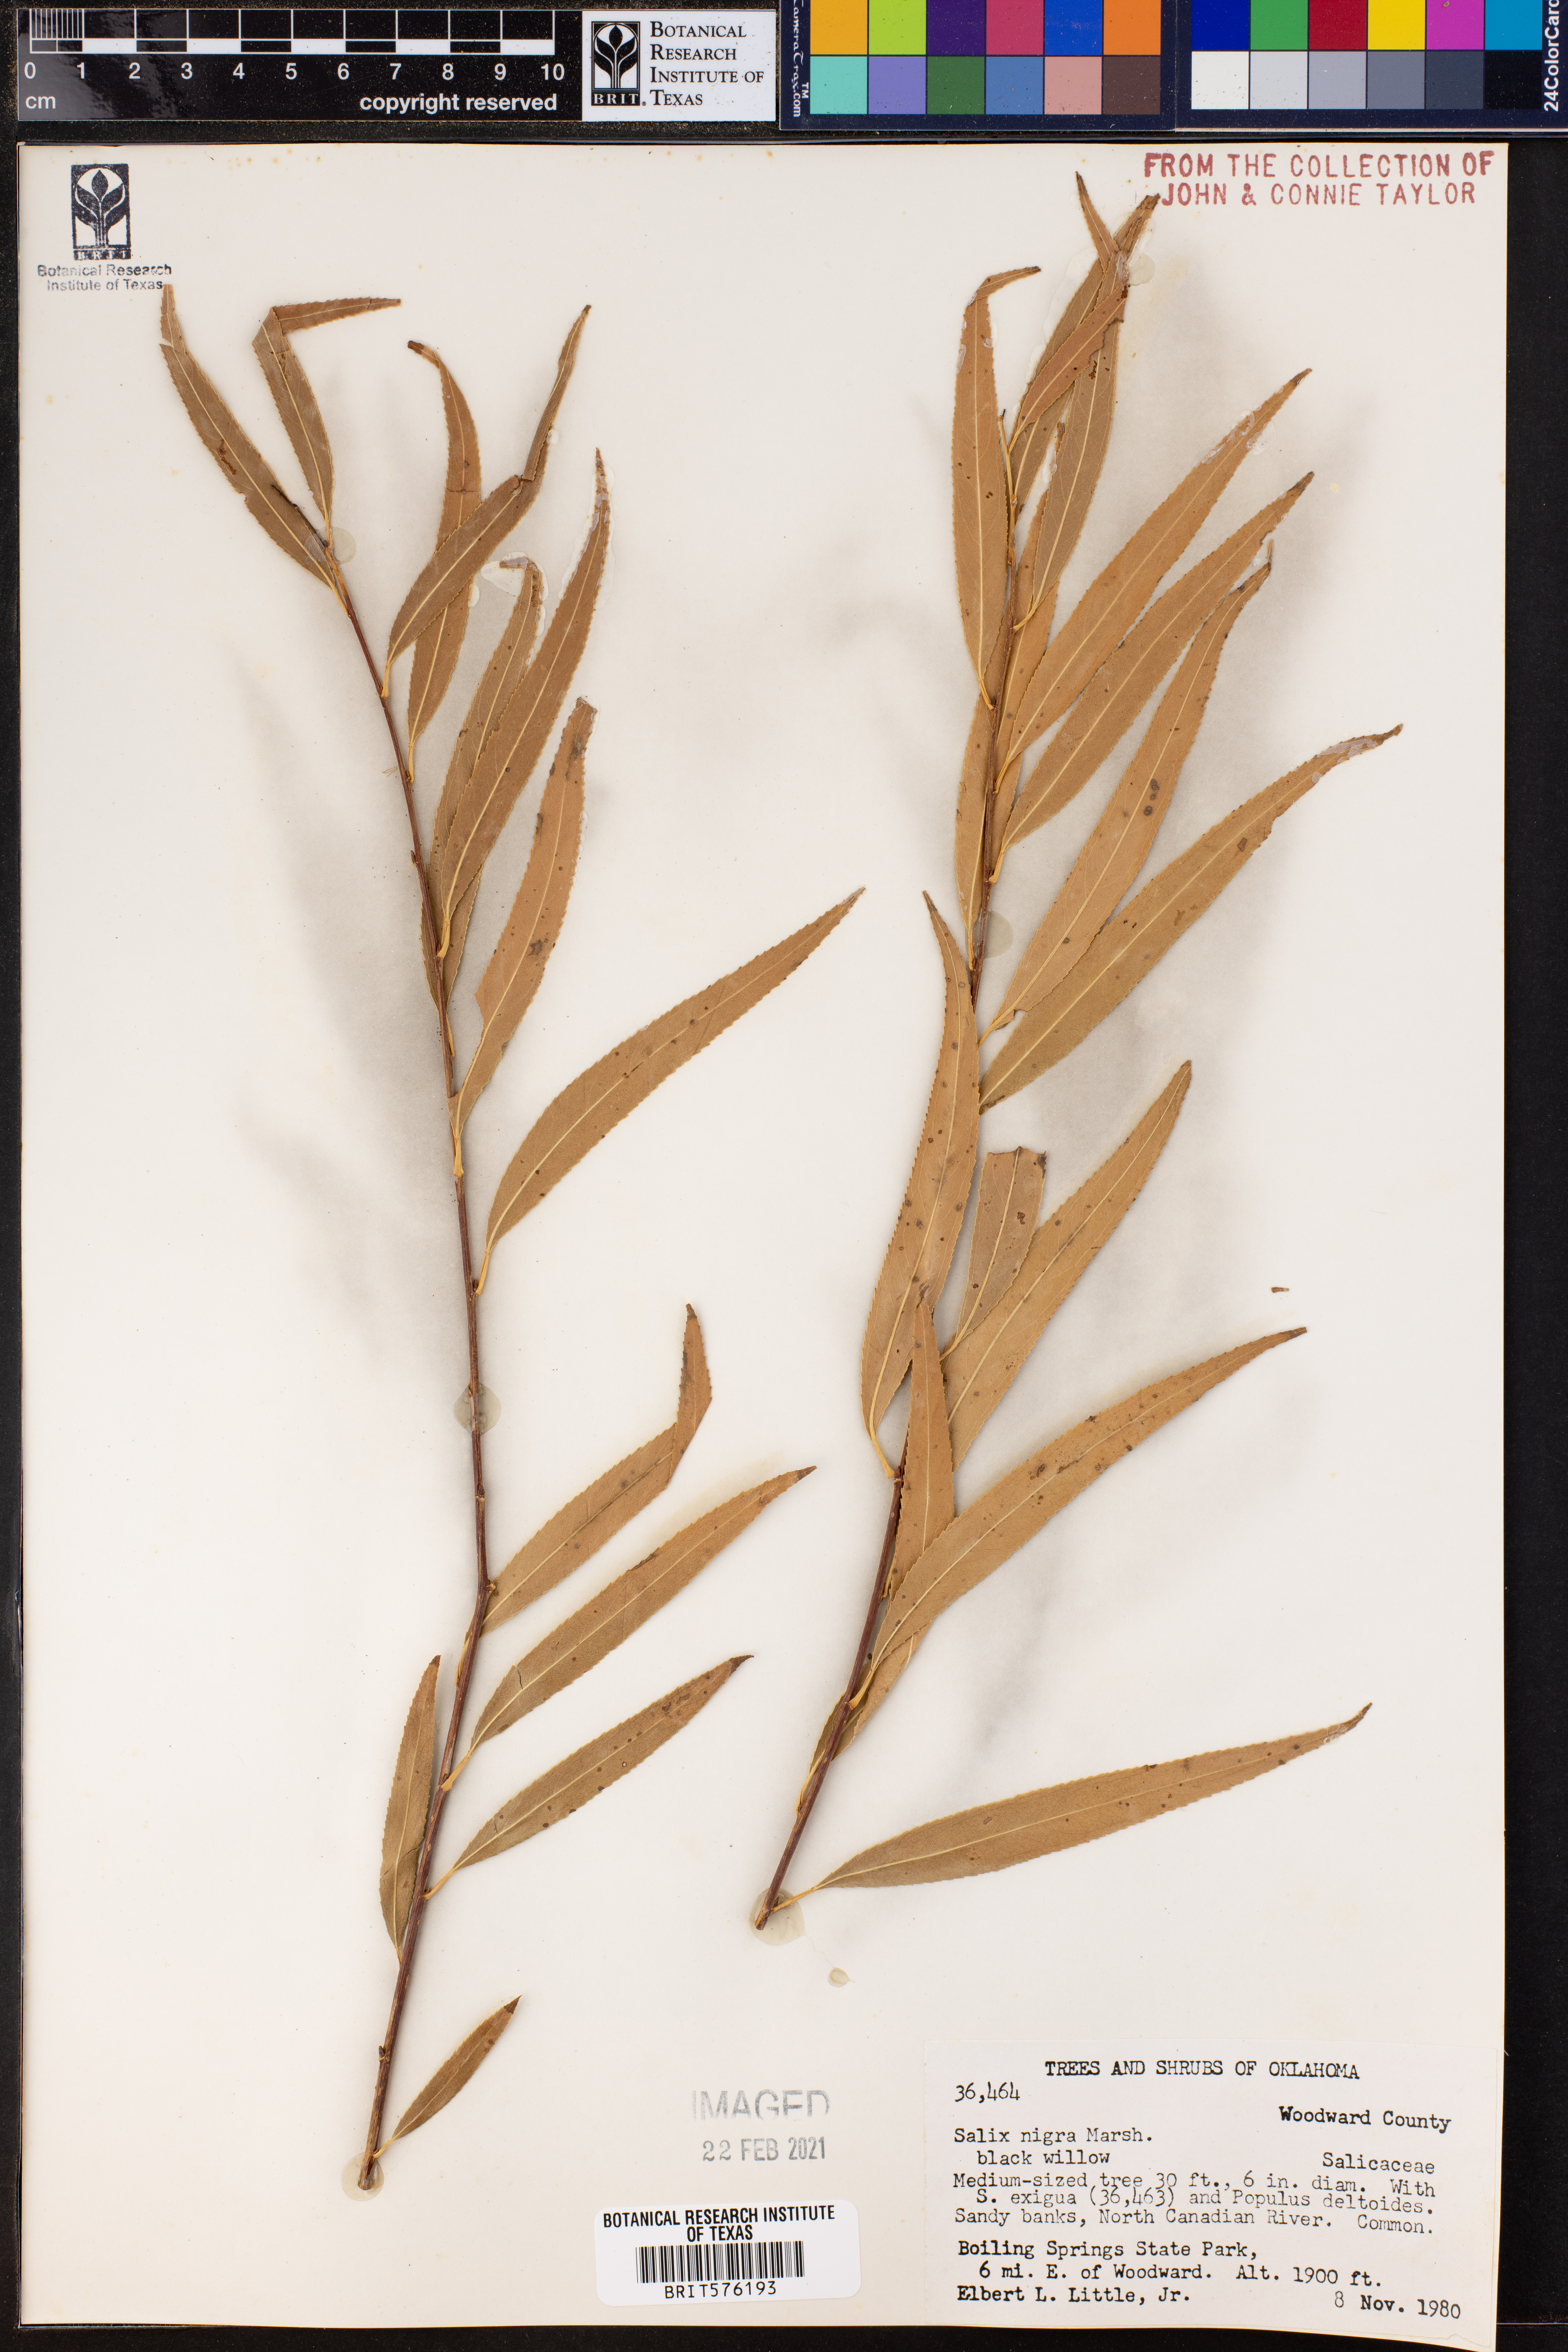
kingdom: Plantae
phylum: Tracheophyta
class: Magnoliopsida
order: Malpighiales
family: Salicaceae
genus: Salix
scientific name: Salix nigra
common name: Black willow
